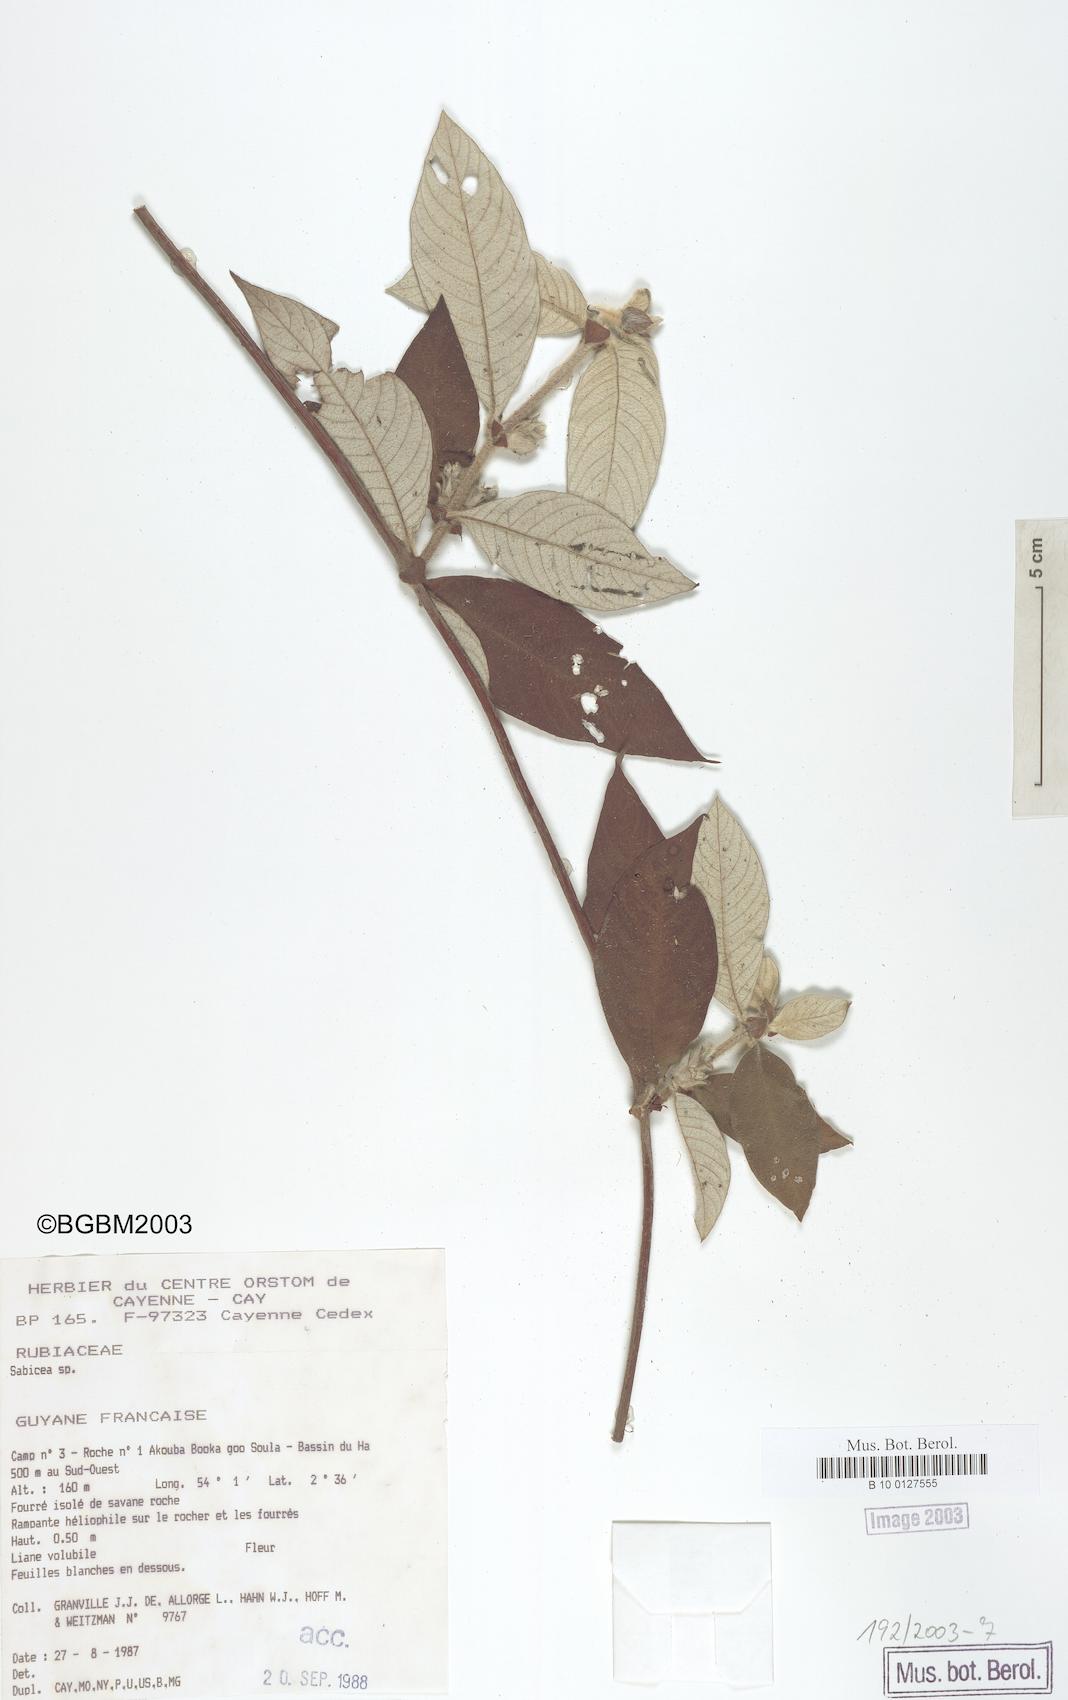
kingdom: Plantae
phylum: Tracheophyta
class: Magnoliopsida
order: Gentianales
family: Rubiaceae
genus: Sabicea
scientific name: Sabicea
